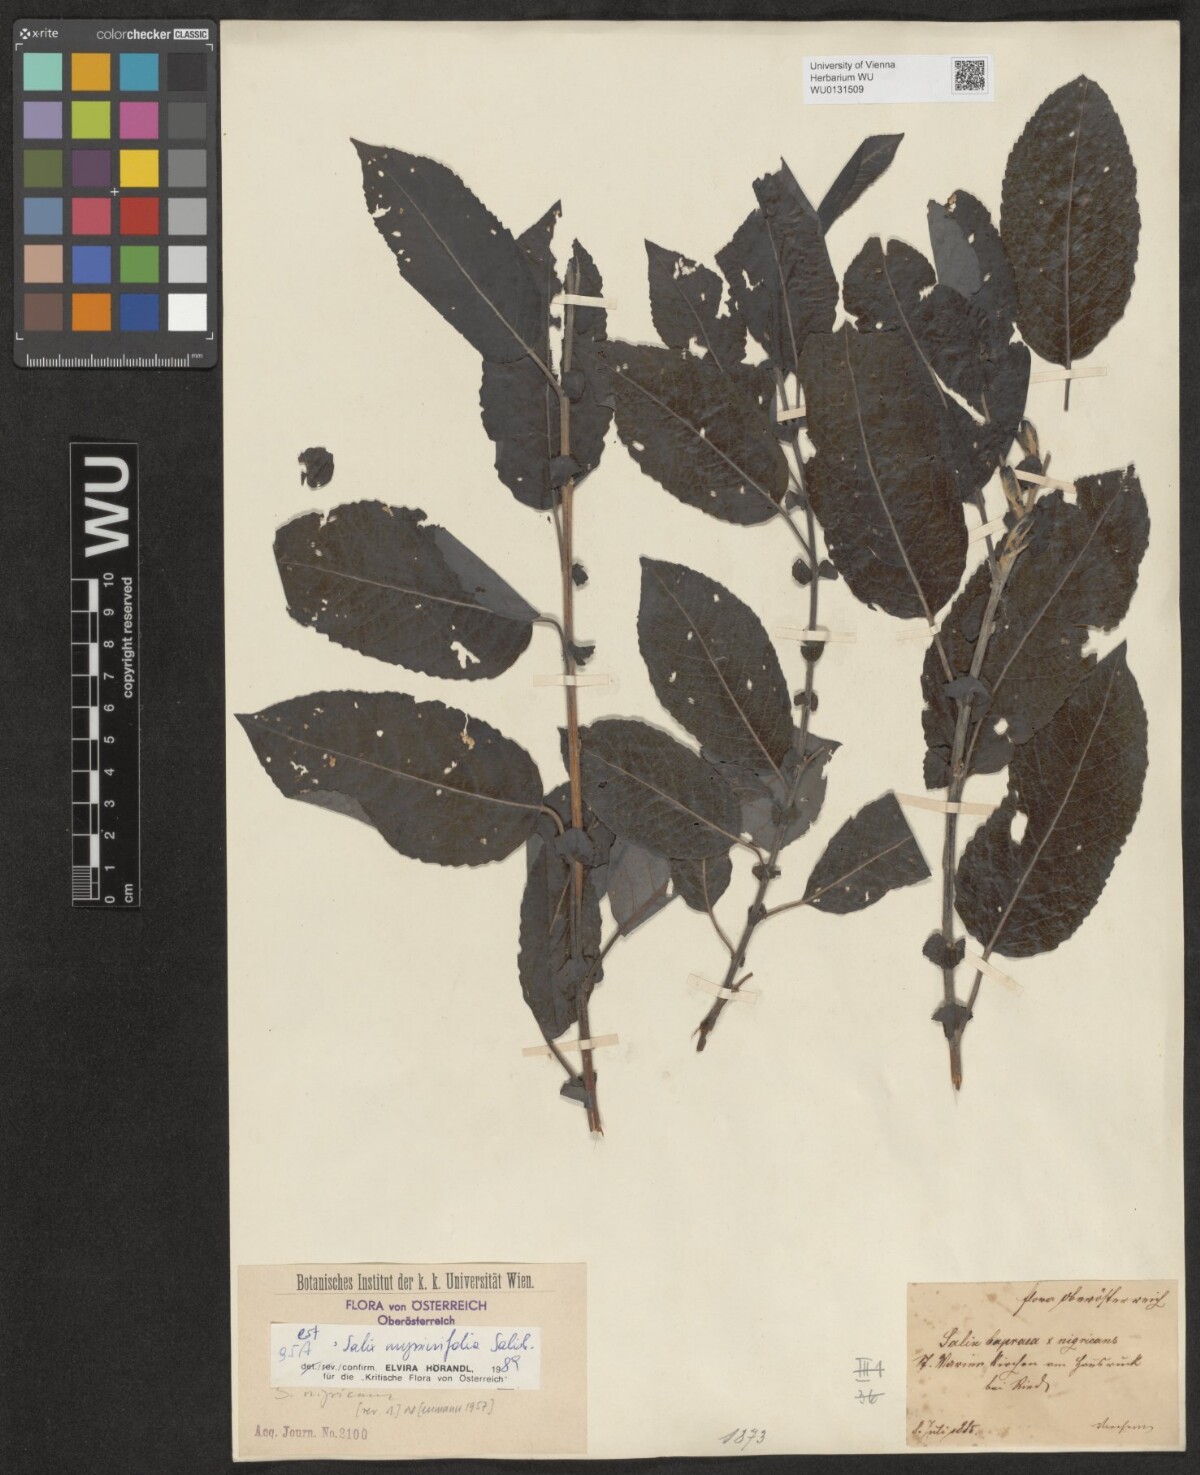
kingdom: Plantae
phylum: Tracheophyta
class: Magnoliopsida
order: Malpighiales
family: Salicaceae
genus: Salix
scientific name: Salix myrsinifolia
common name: Dark-leaved willow
